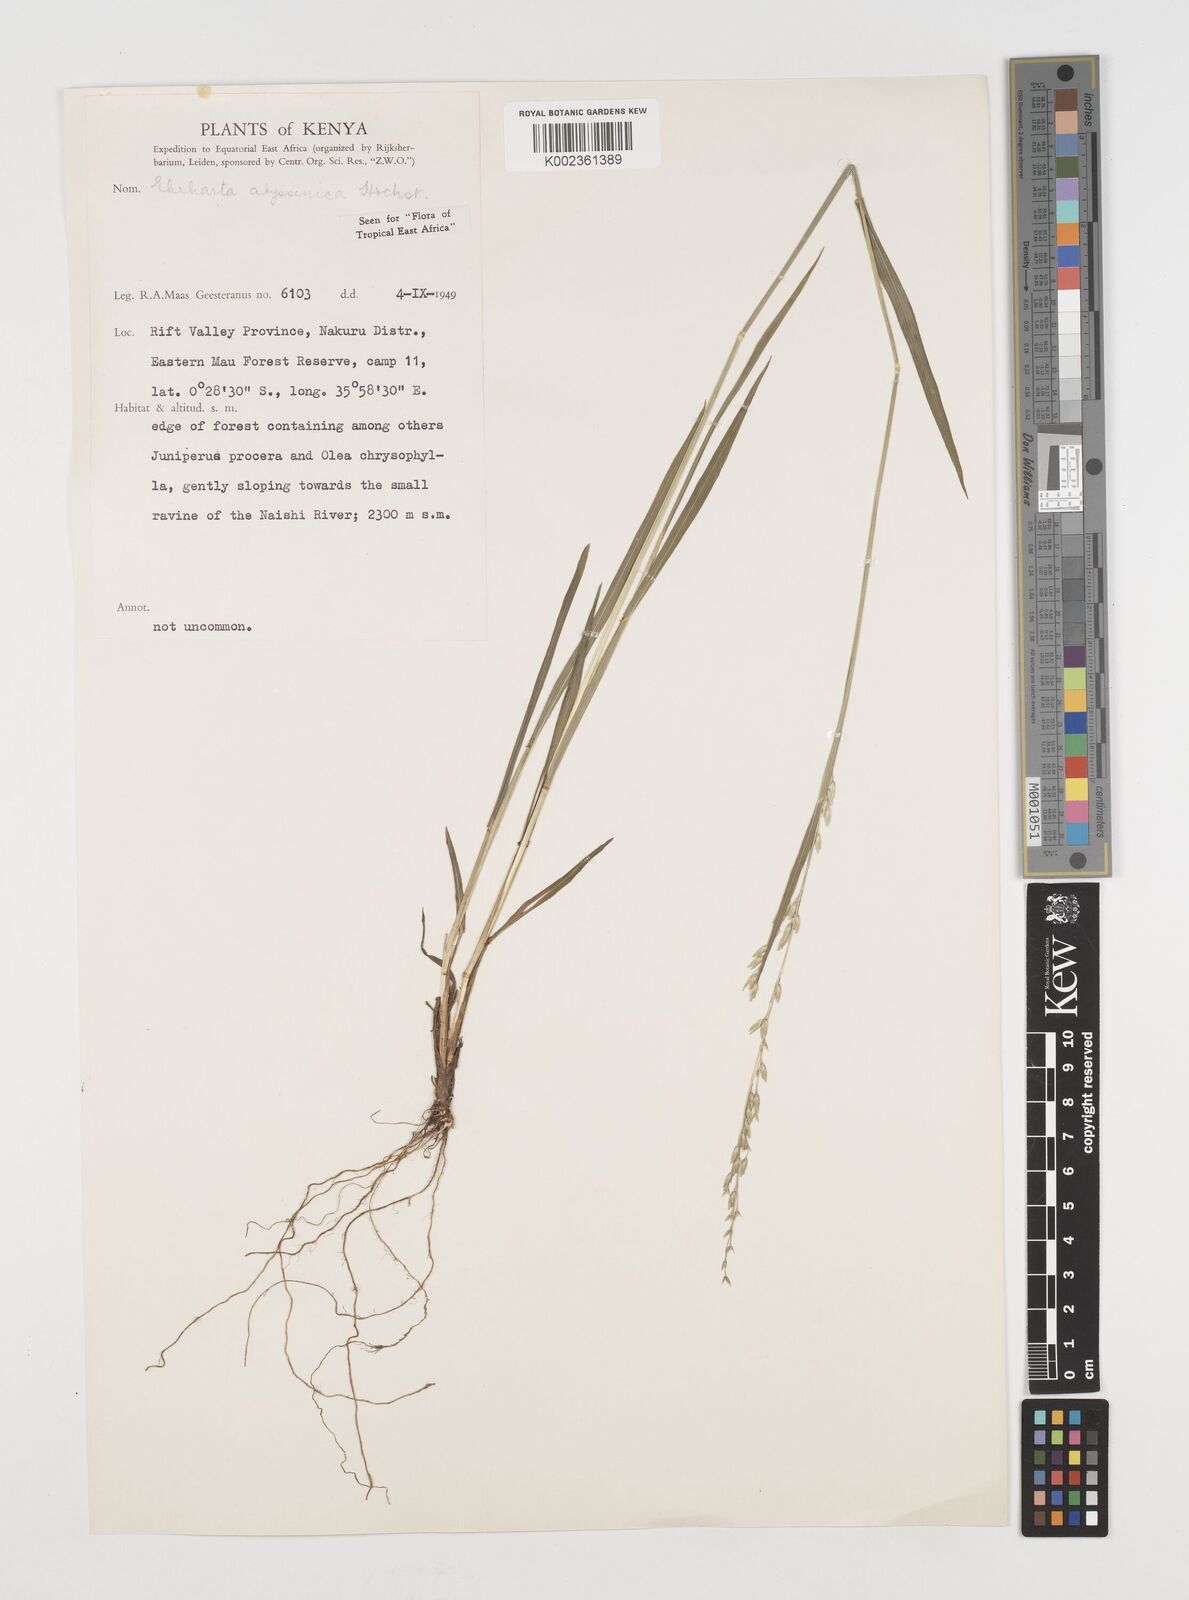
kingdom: Plantae
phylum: Tracheophyta
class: Liliopsida
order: Poales
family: Poaceae
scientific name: Poaceae
